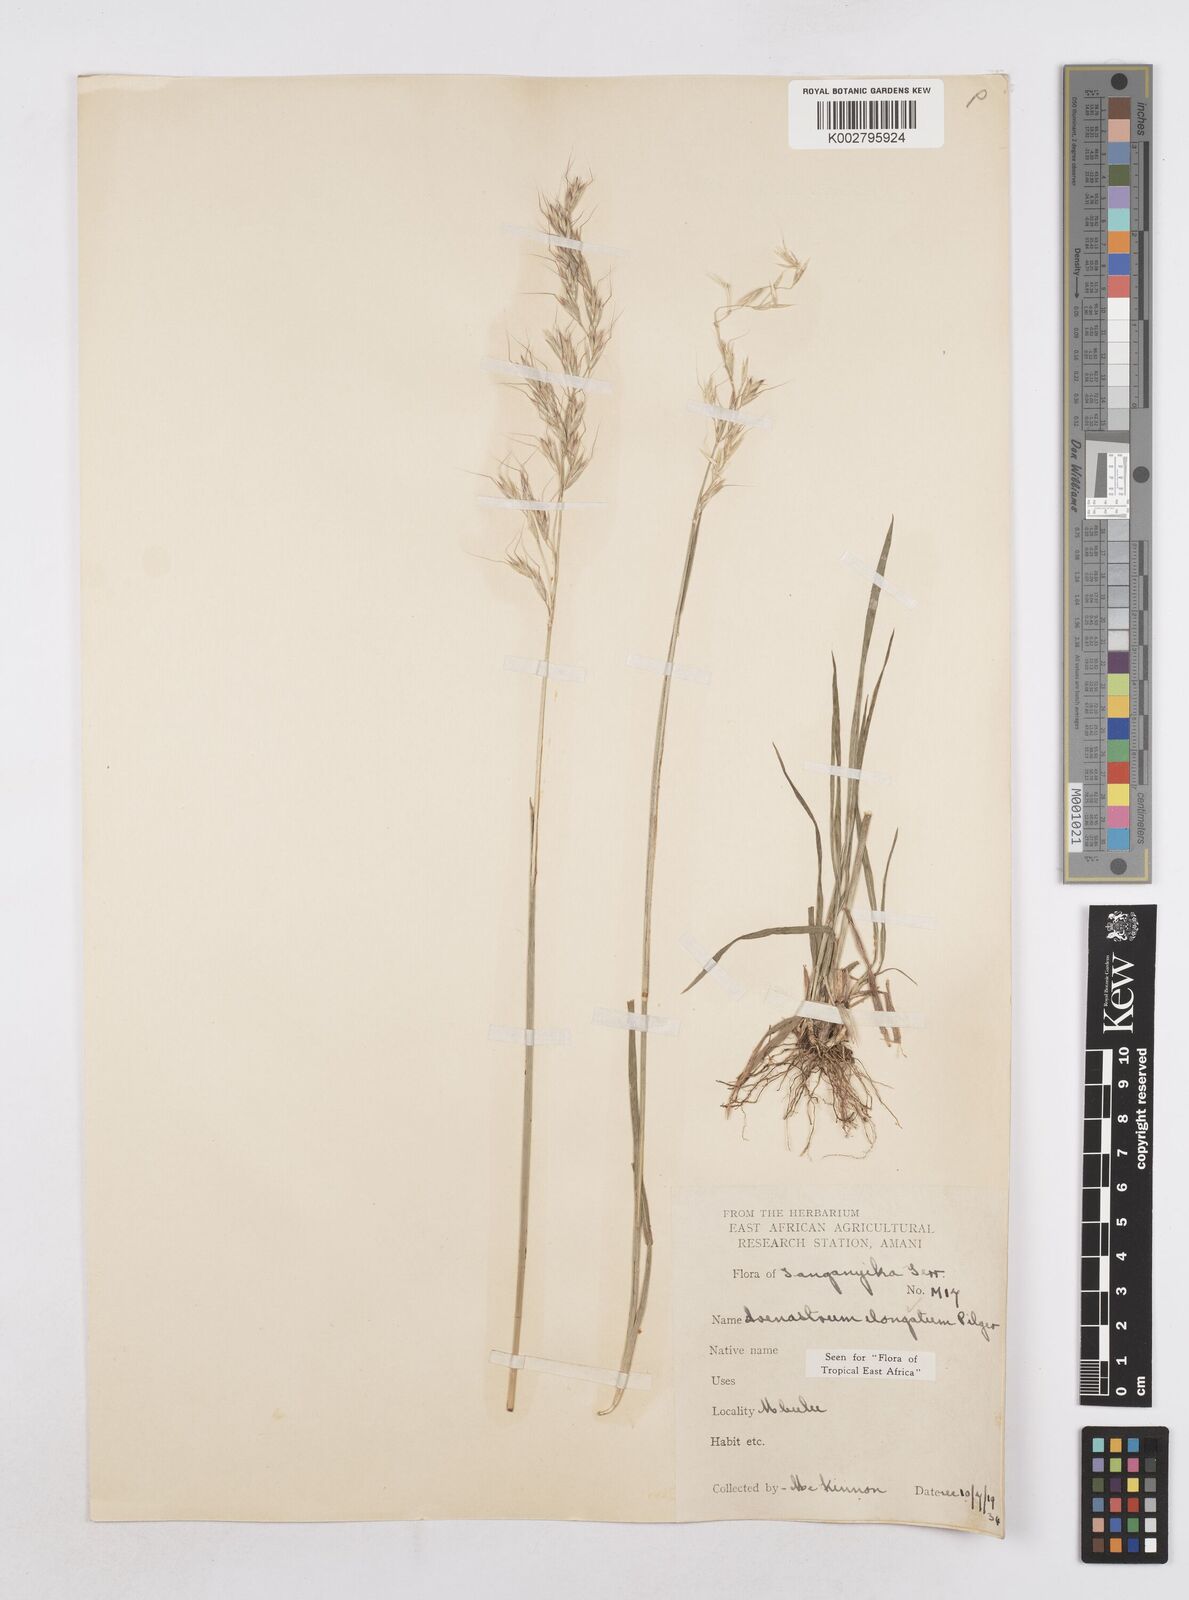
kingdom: Plantae
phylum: Tracheophyta
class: Liliopsida
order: Poales
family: Poaceae
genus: Trisetopsis
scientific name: Trisetopsis elongata
